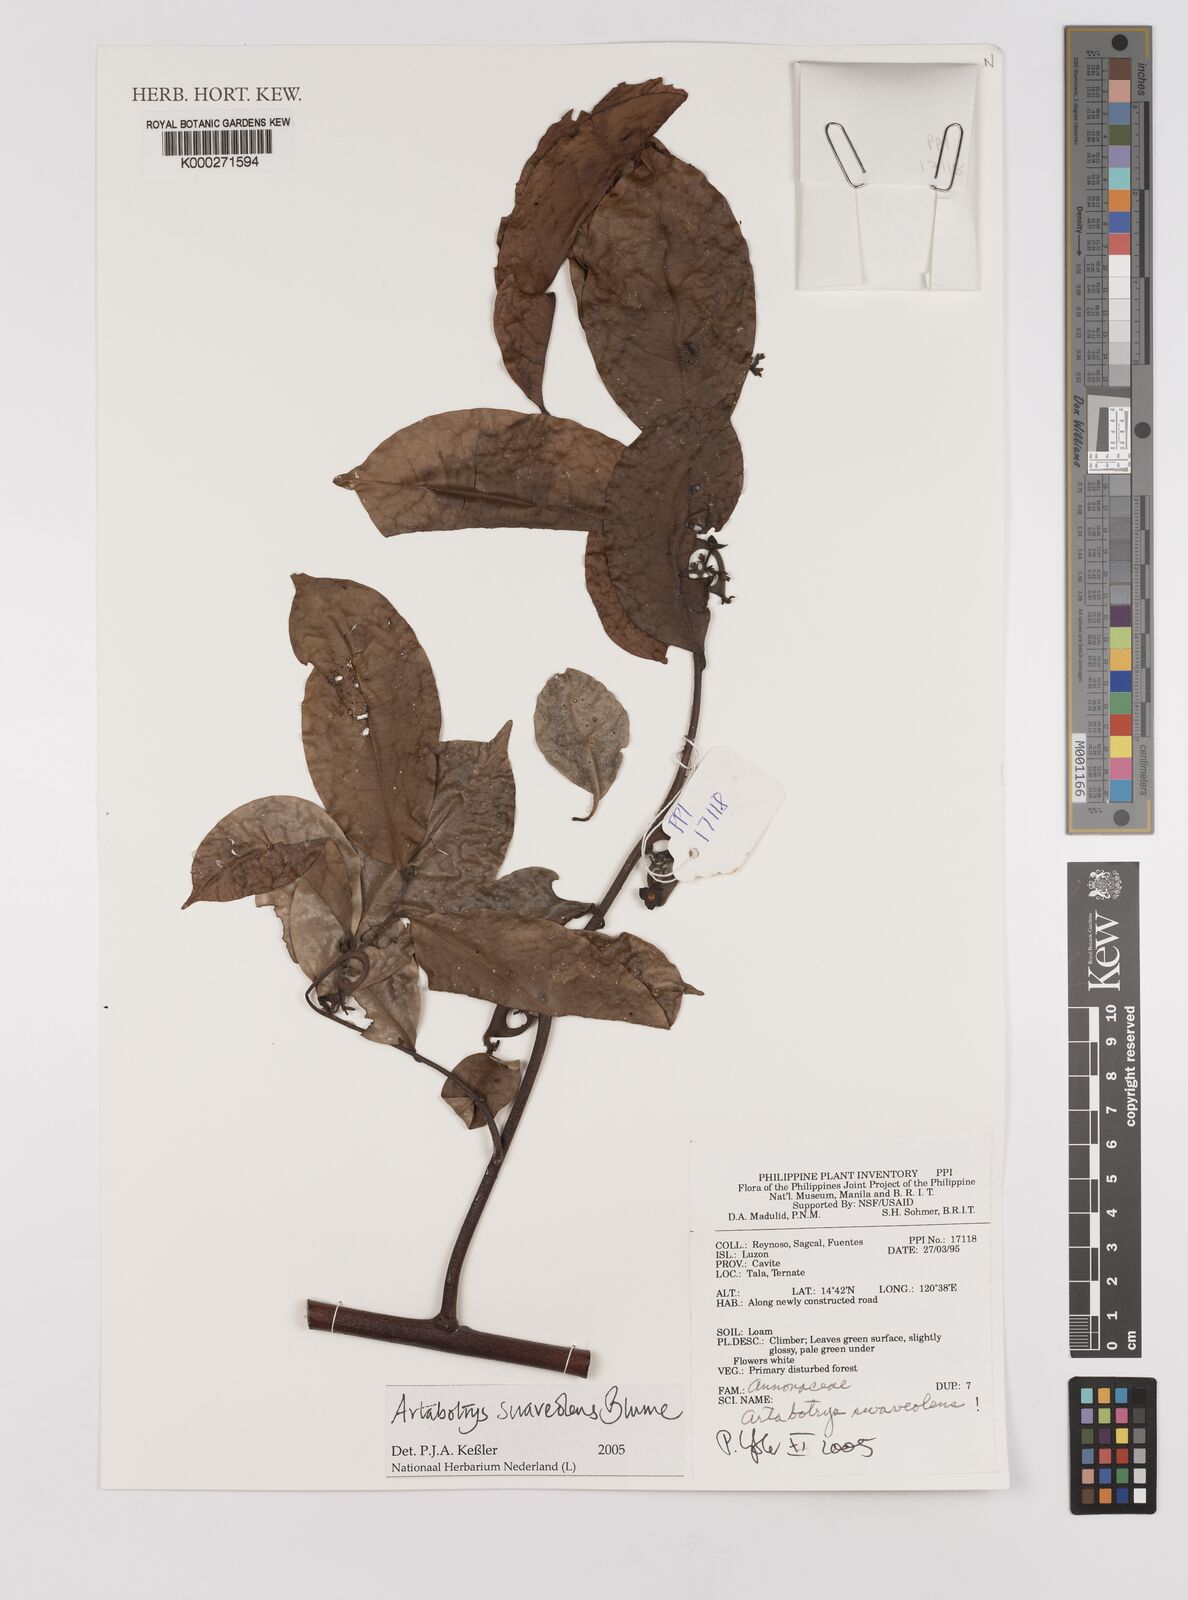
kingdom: Plantae
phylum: Tracheophyta
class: Magnoliopsida
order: Magnoliales
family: Annonaceae
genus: Artabotrys
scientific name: Artabotrys suaveolens
